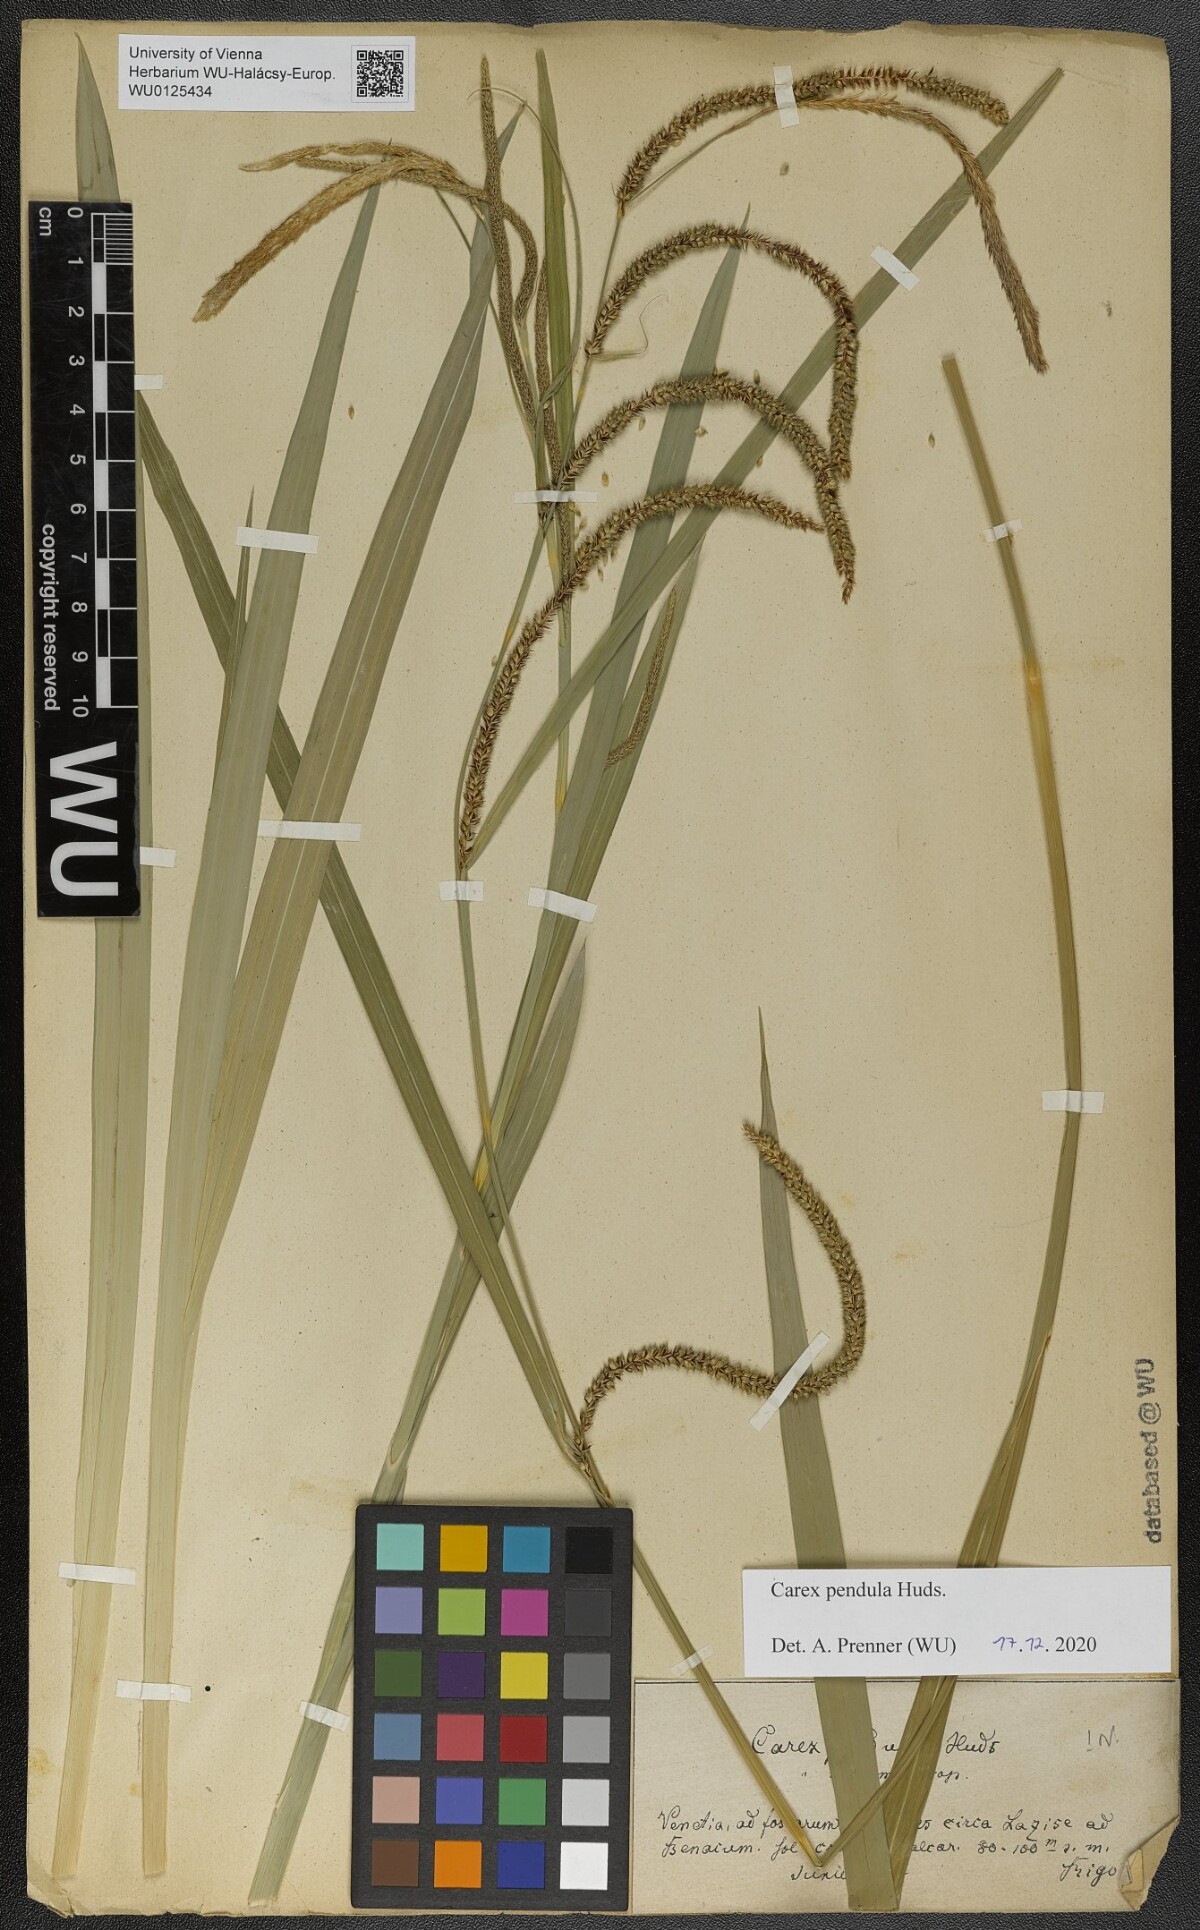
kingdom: Plantae
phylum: Tracheophyta
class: Liliopsida
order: Poales
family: Cyperaceae
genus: Carex
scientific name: Carex pendula
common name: Pendulous sedge
